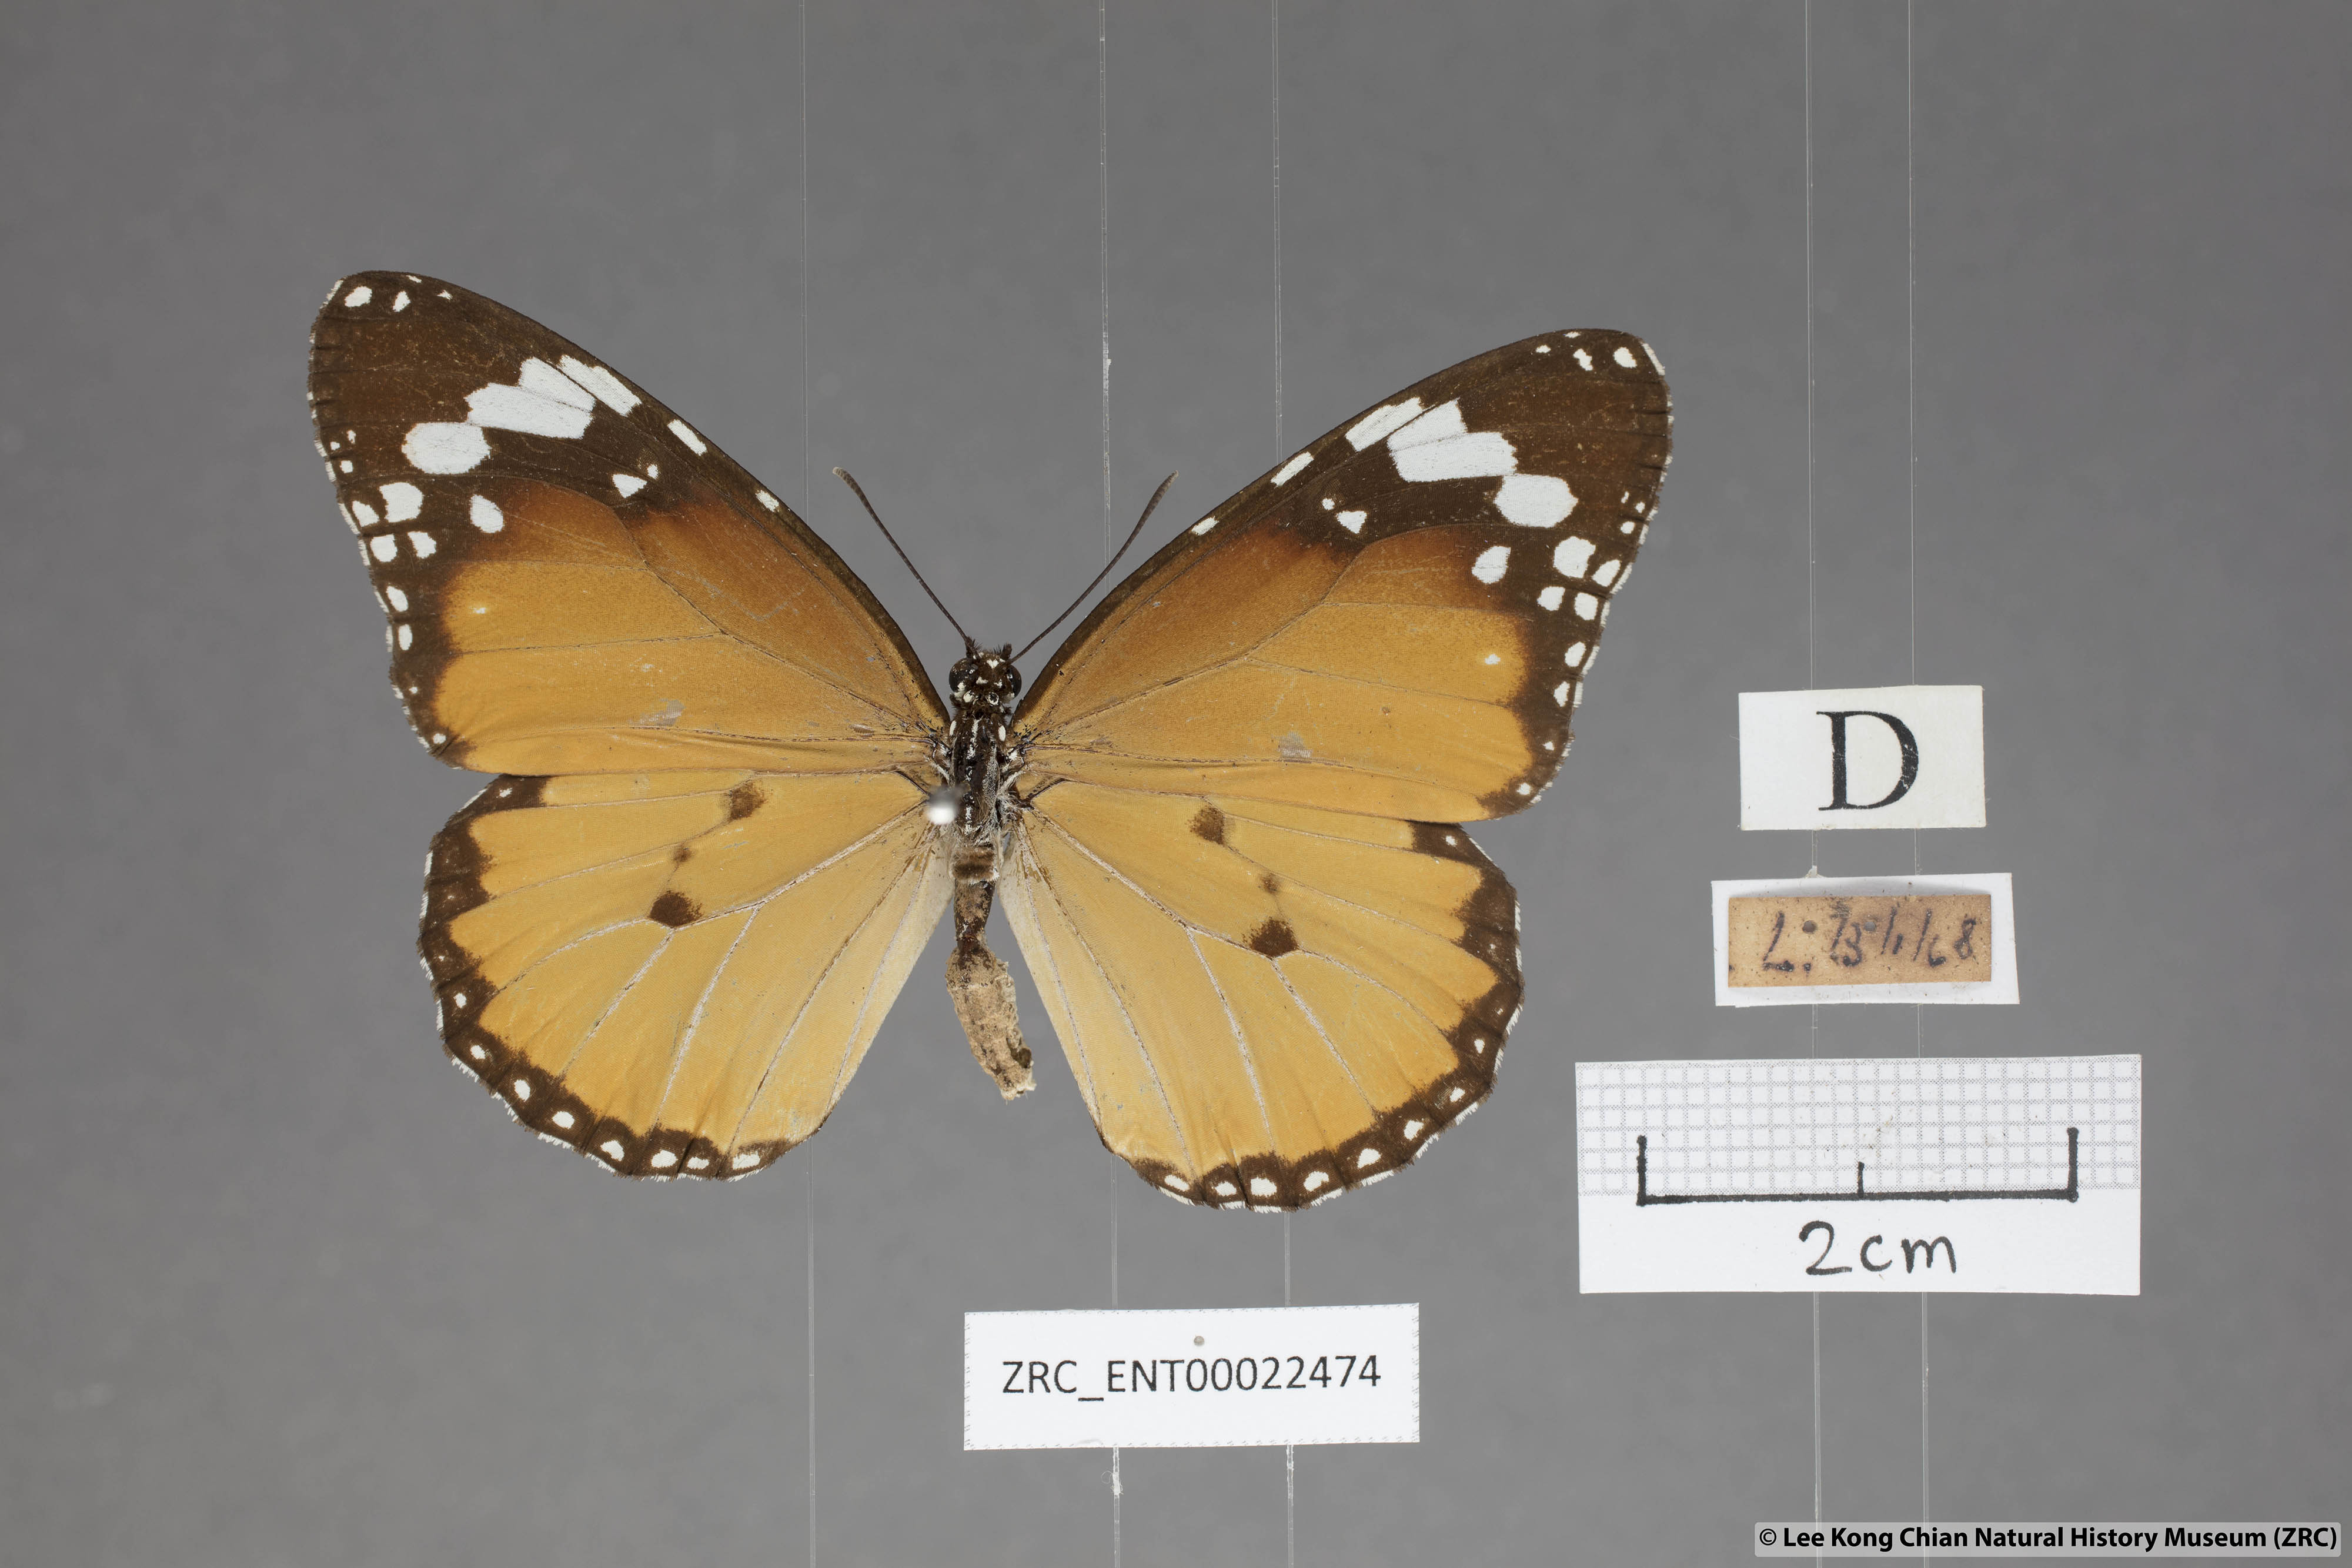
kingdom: Animalia
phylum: Arthropoda
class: Insecta
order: Lepidoptera
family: Nymphalidae
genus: Danaus
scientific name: Danaus chrysippus
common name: Plain tiger
